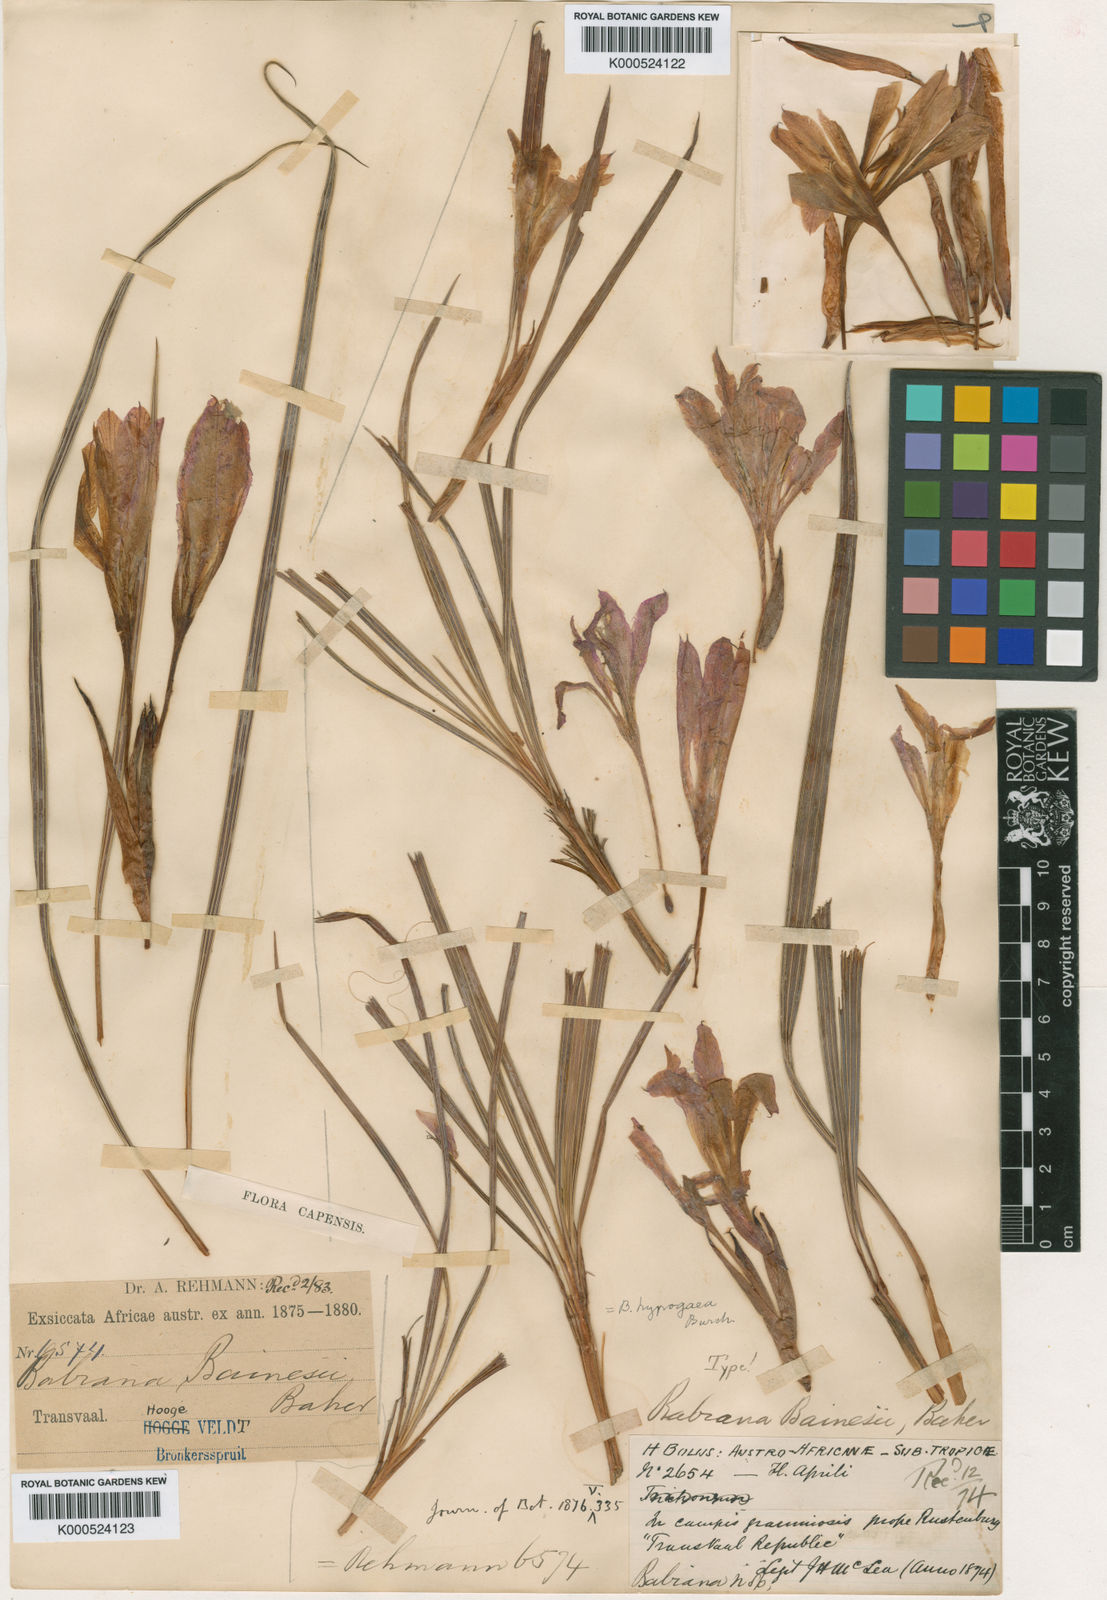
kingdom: Plantae
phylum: Tracheophyta
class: Liliopsida
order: Asparagales
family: Iridaceae
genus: Babiana
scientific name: Babiana bainesii
